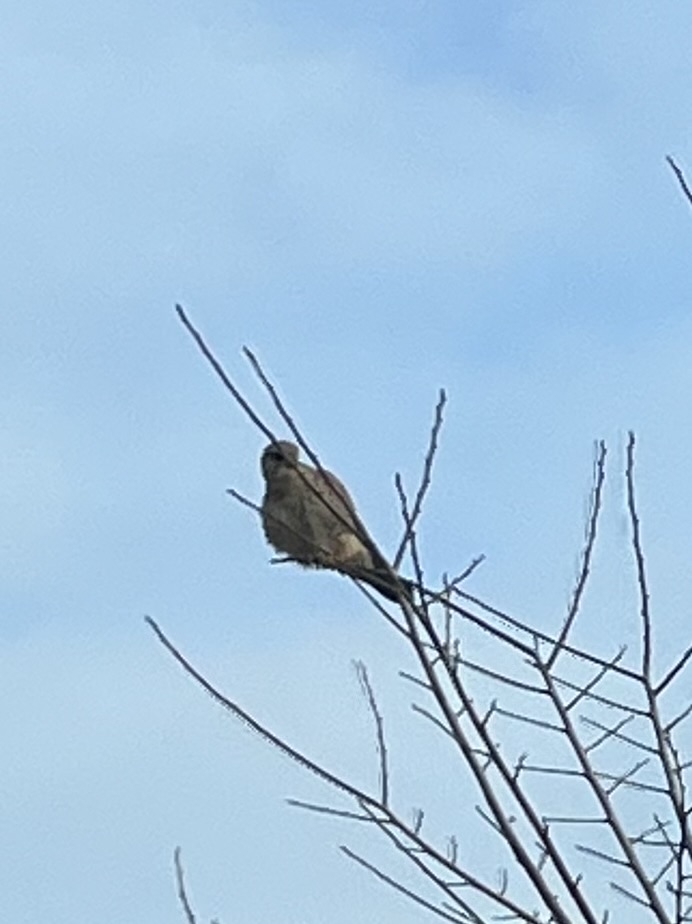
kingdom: Animalia
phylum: Chordata
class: Aves
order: Falconiformes
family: Falconidae
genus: Falco
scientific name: Falco tinnunculus
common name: Tårnfalk
